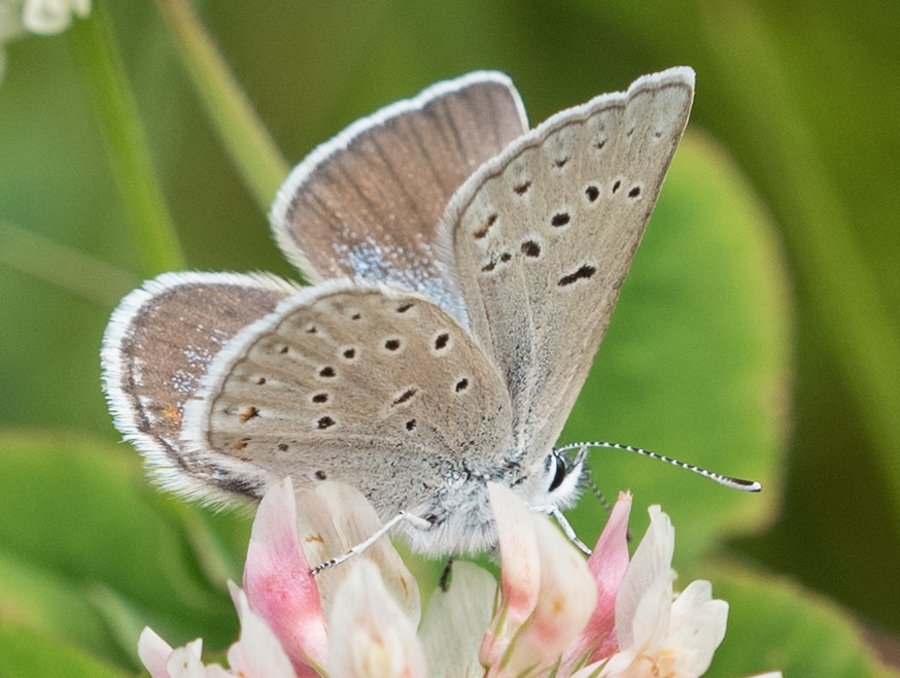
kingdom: Animalia
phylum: Arthropoda
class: Insecta
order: Lepidoptera
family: Lycaenidae
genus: Plebejus
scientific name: Plebejus saepiolus
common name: Greenish Blue
